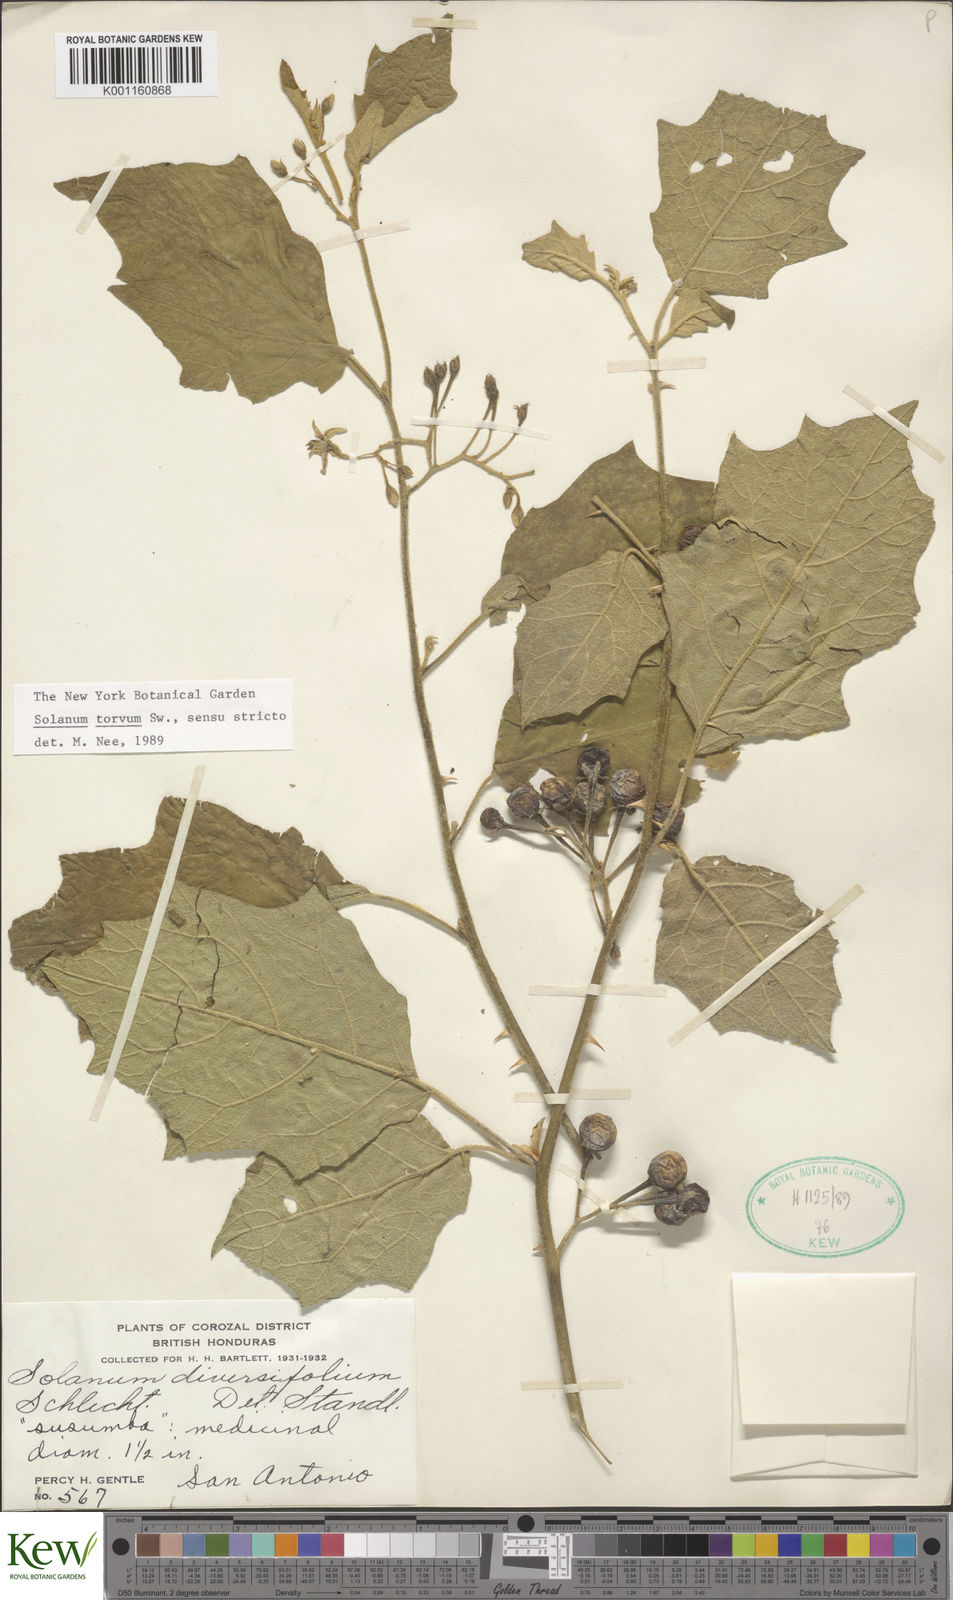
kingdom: Plantae
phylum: Tracheophyta
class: Magnoliopsida
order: Solanales
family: Solanaceae
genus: Solanum
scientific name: Solanum torvum
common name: Turkey berry
